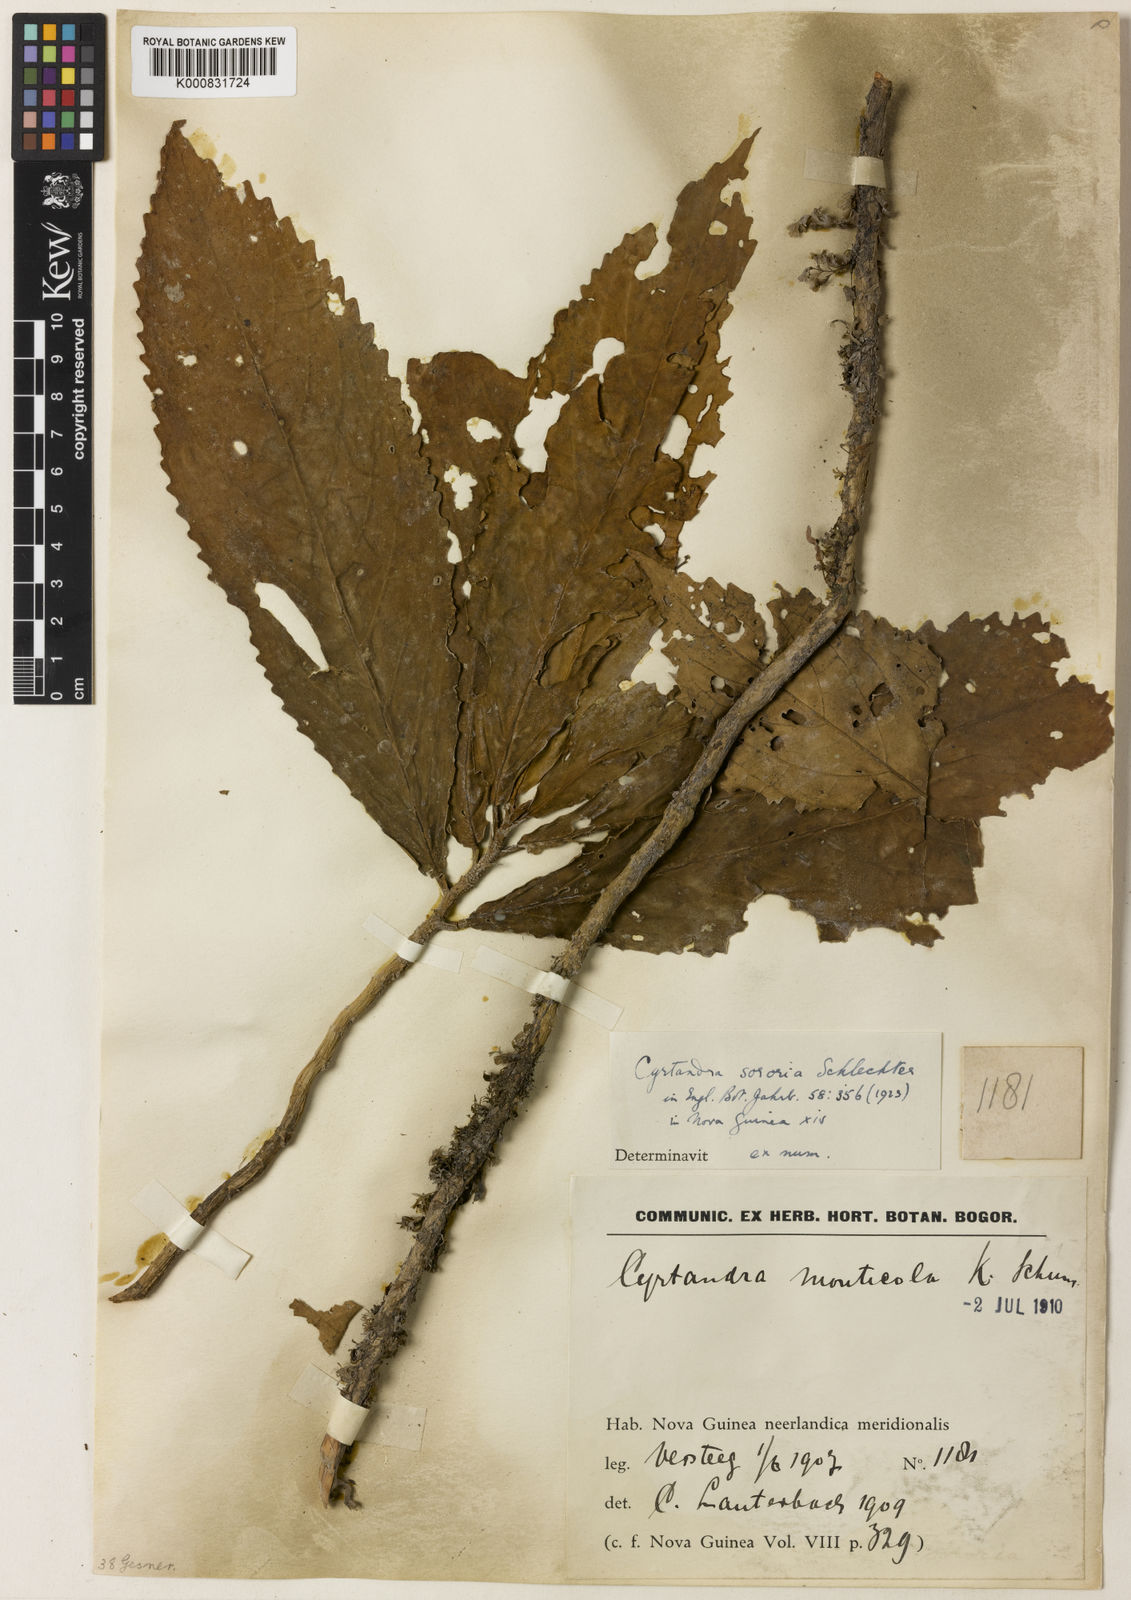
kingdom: Plantae
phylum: Tracheophyta
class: Magnoliopsida
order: Lamiales
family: Gesneriaceae
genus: Cyrtandra
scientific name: Cyrtandra sororia
